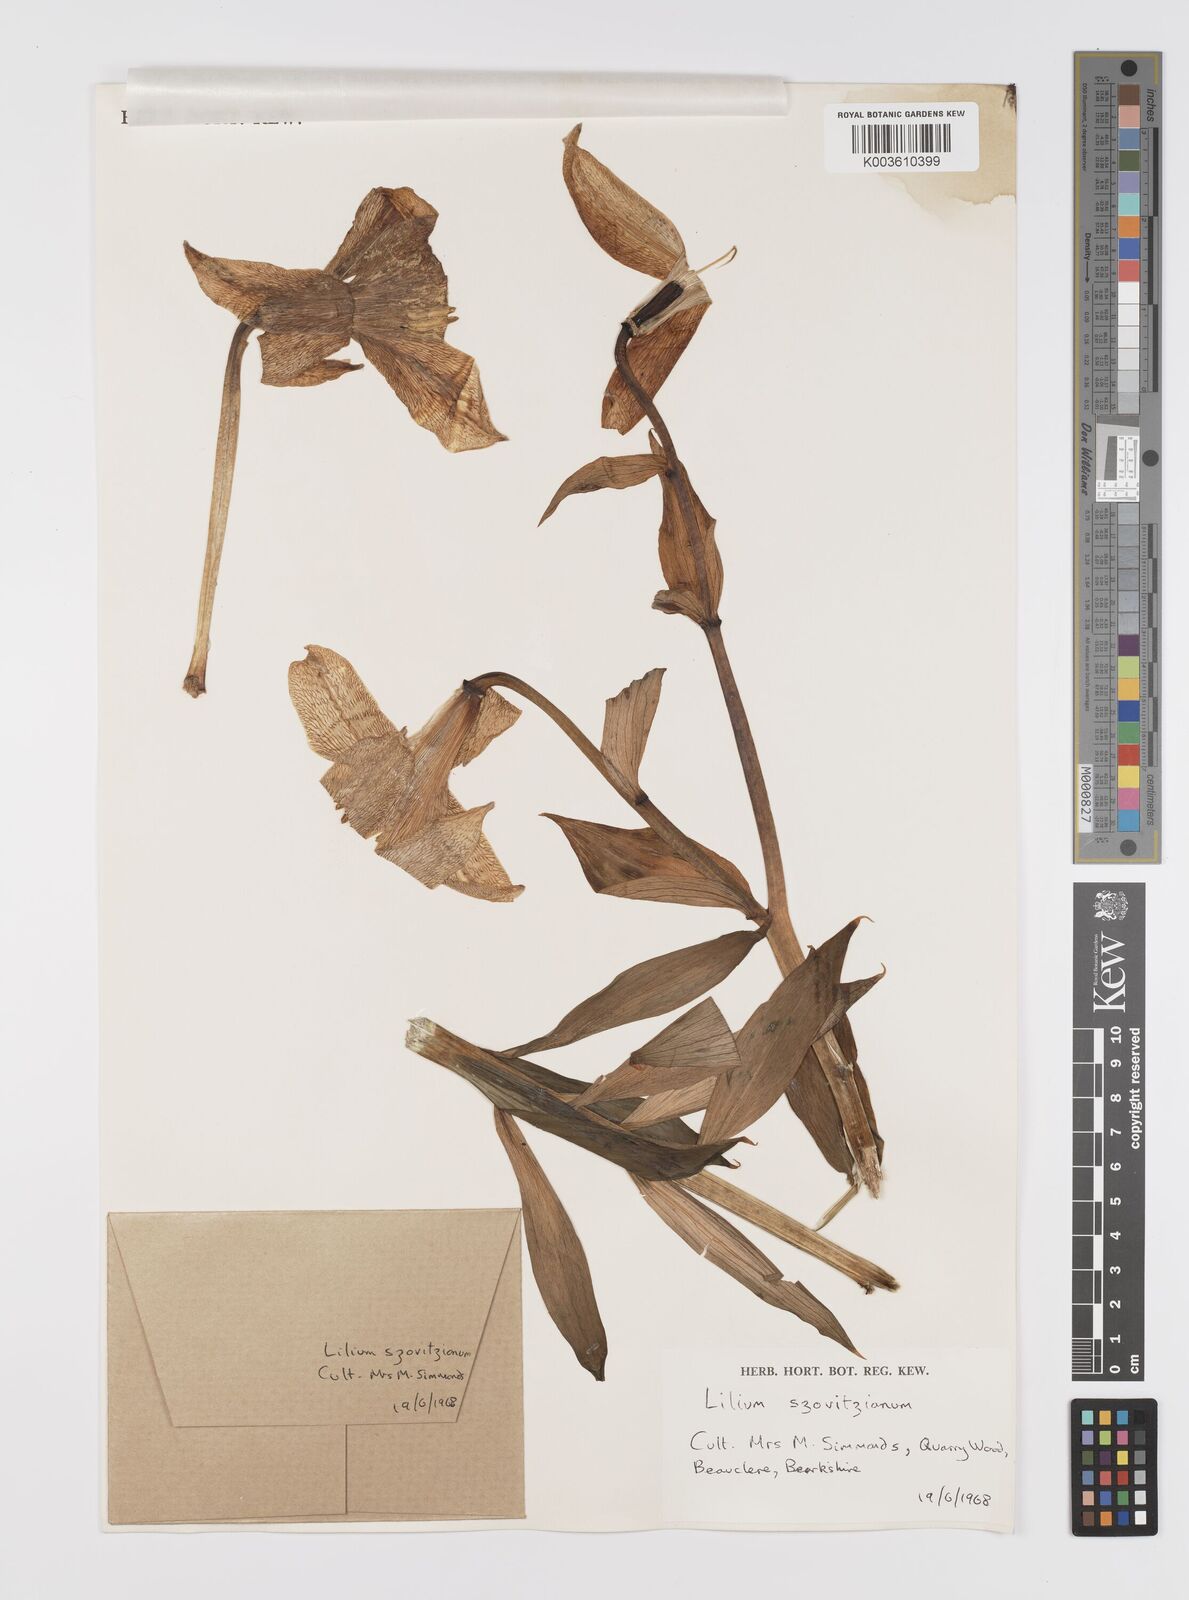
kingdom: Plantae
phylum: Tracheophyta
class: Liliopsida
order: Liliales
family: Liliaceae
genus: Lilium
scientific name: Lilium szovitsianum
